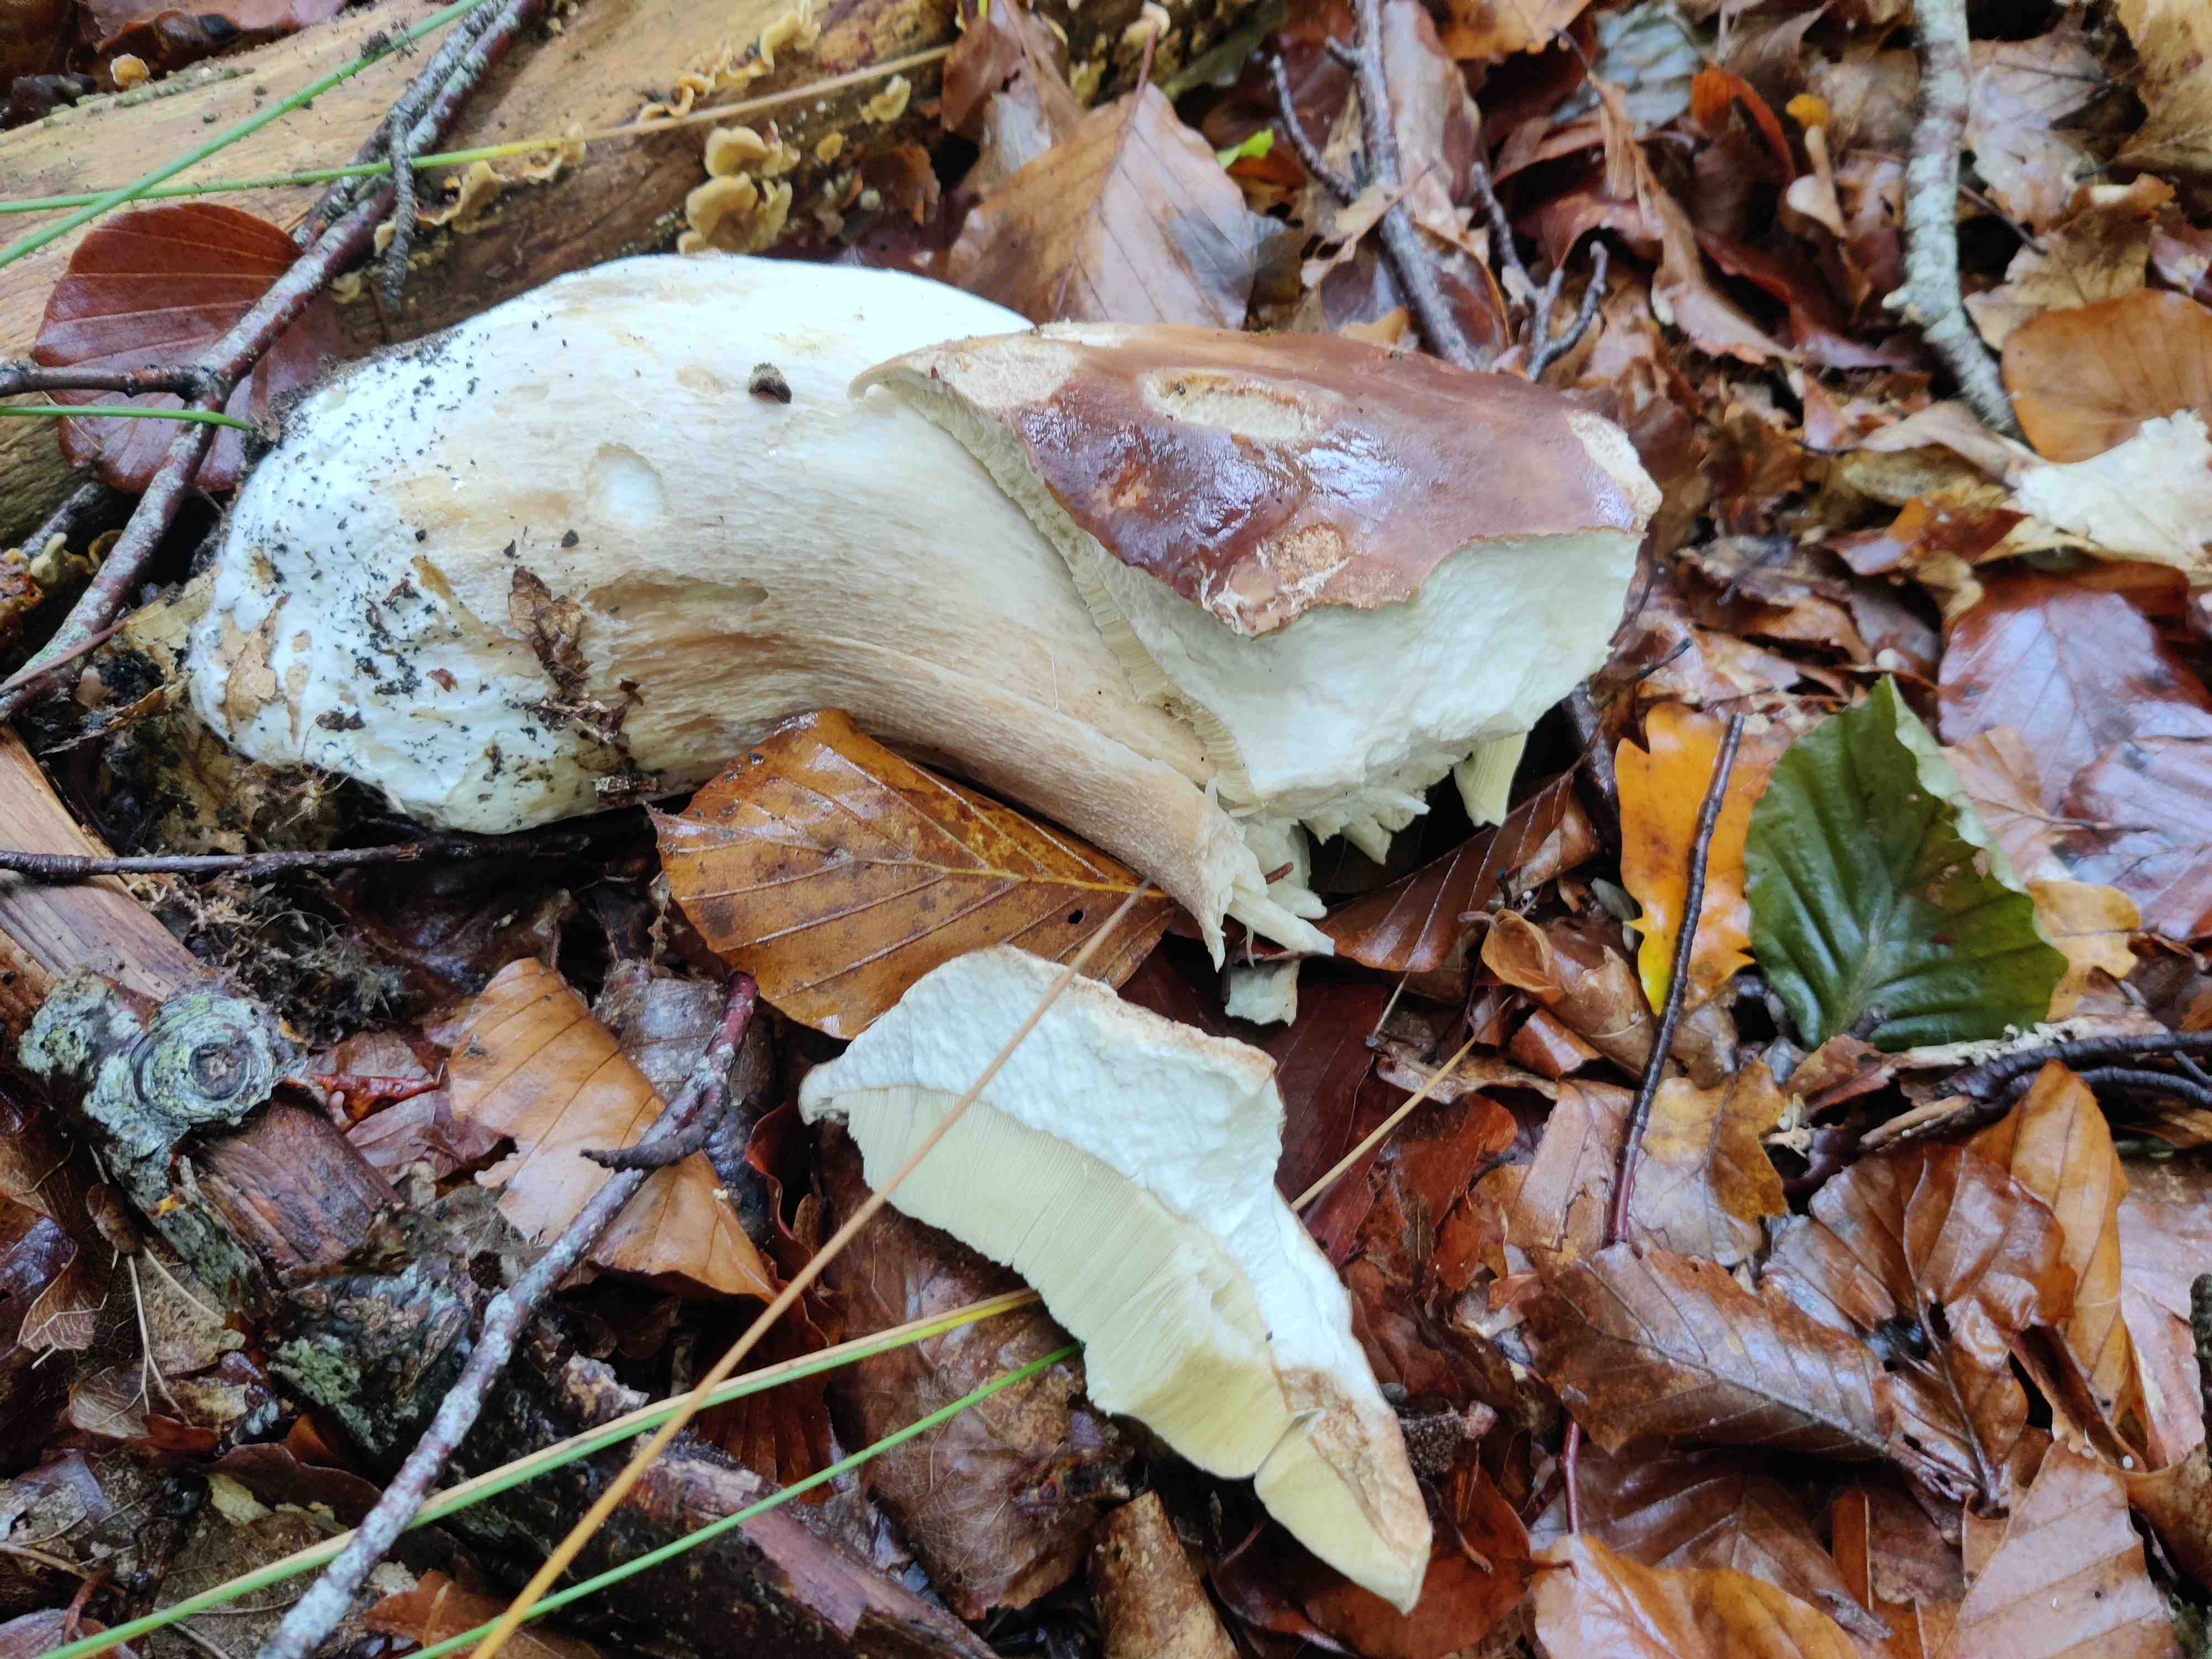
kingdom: Fungi
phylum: Basidiomycota
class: Agaricomycetes
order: Boletales
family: Boletaceae
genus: Boletus
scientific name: Boletus edulis
